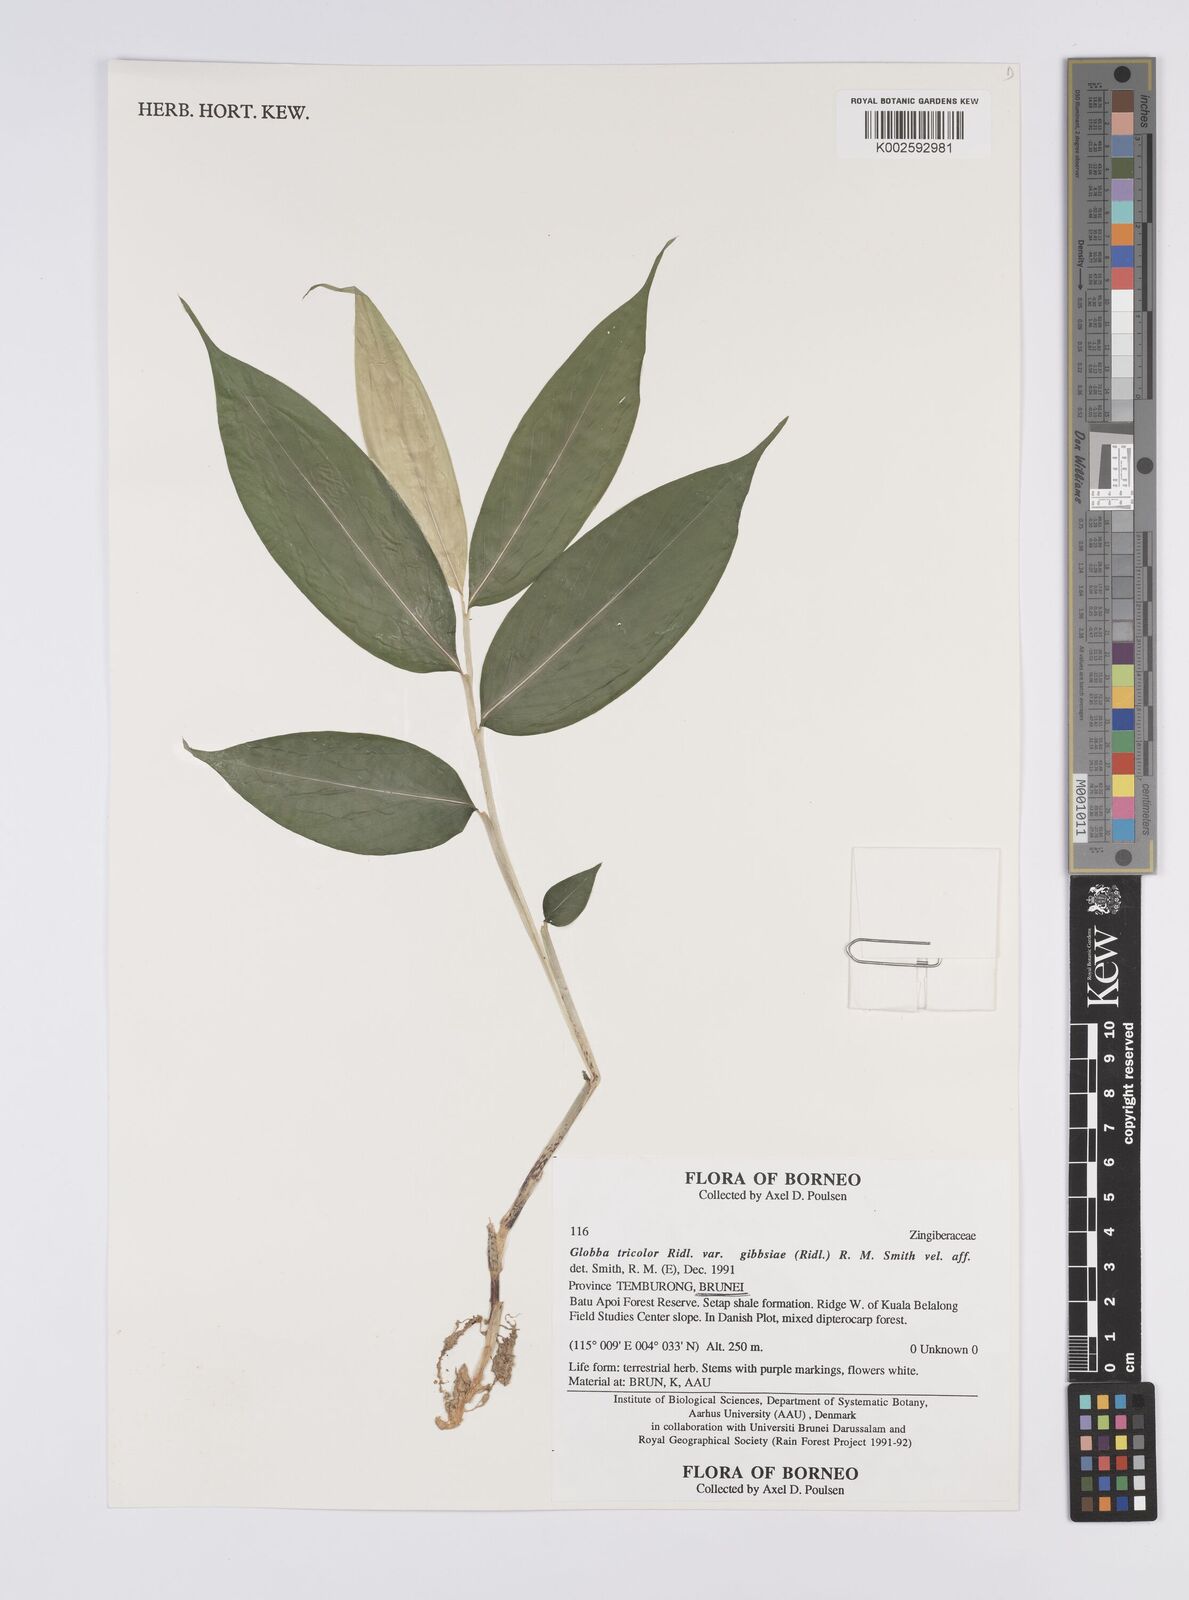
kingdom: Plantae
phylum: Tracheophyta
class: Liliopsida
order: Zingiberales
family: Zingiberaceae
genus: Globba
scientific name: Globba tricolor
